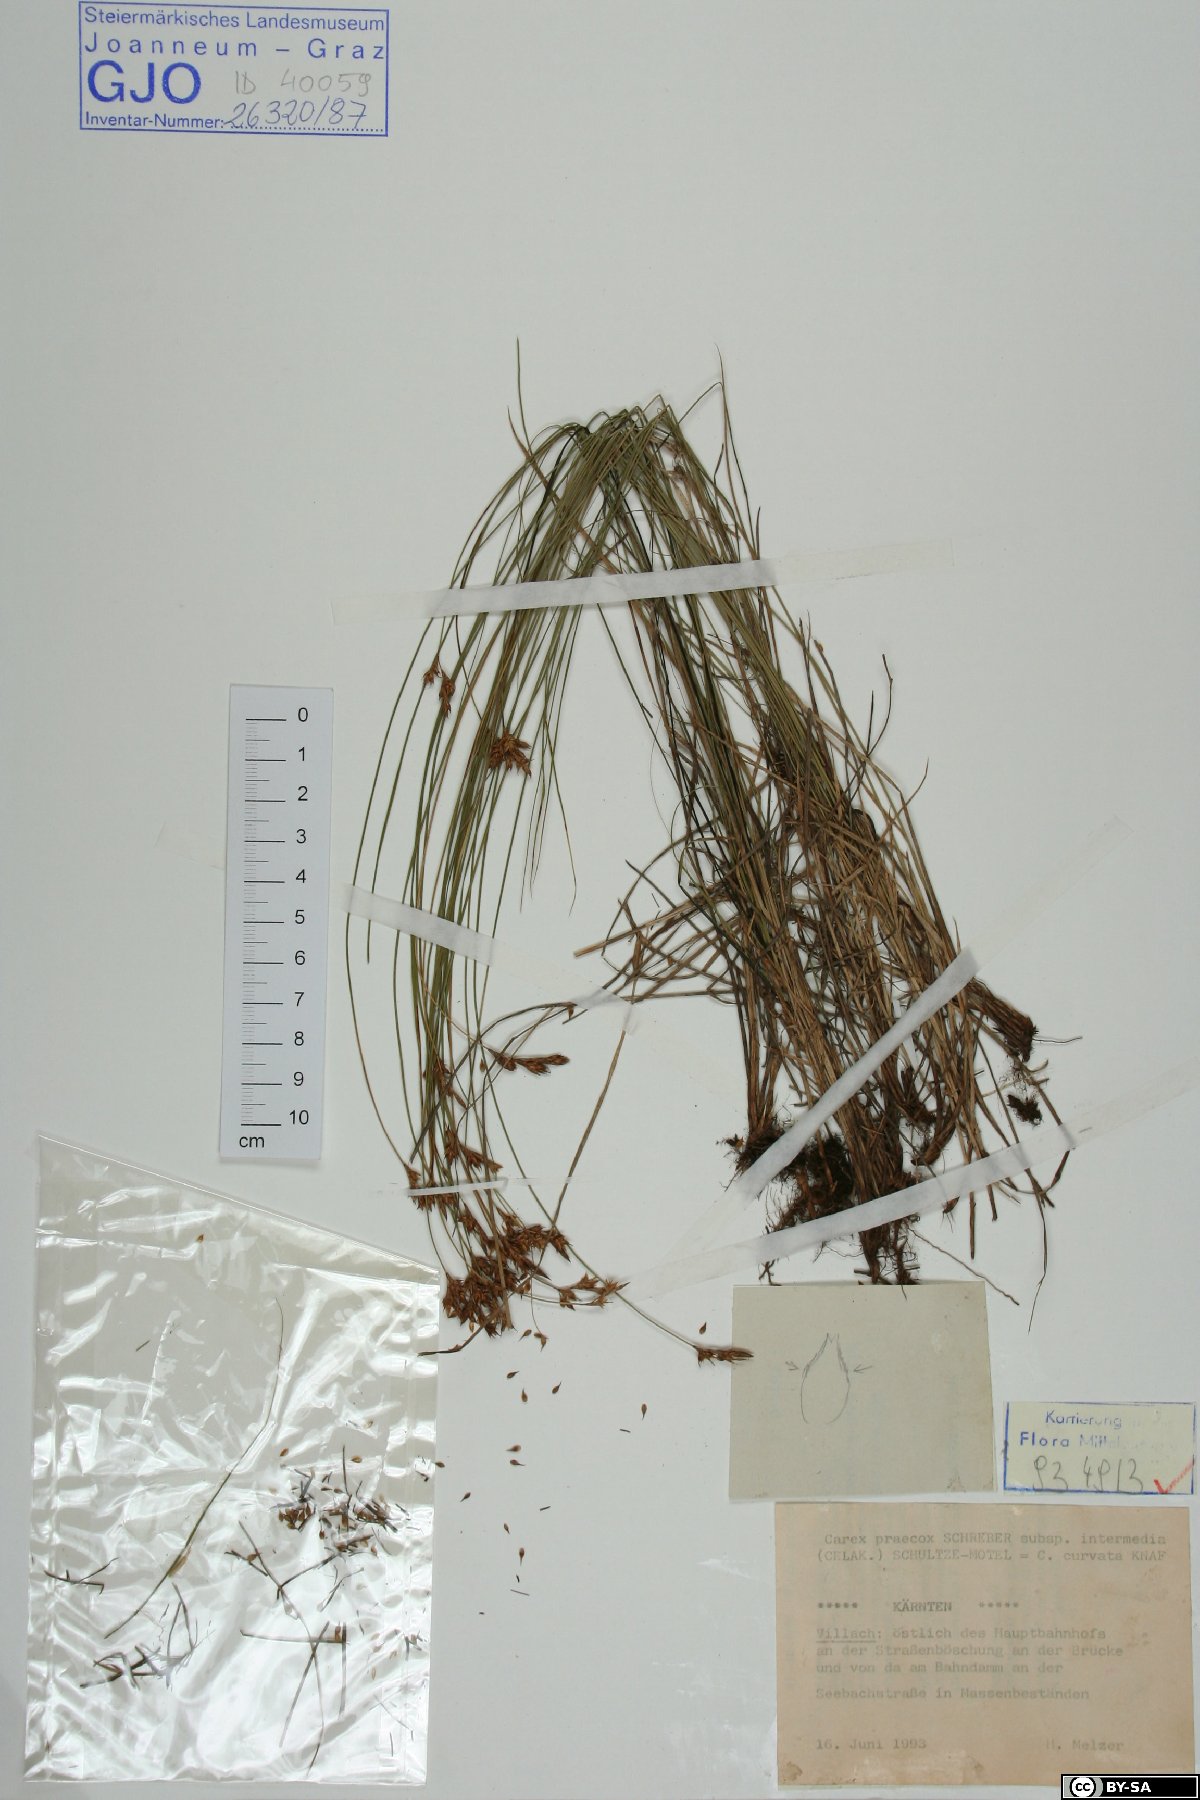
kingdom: Plantae
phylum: Tracheophyta
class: Liliopsida
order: Poales
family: Cyperaceae
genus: Carex
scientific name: Carex curvata
